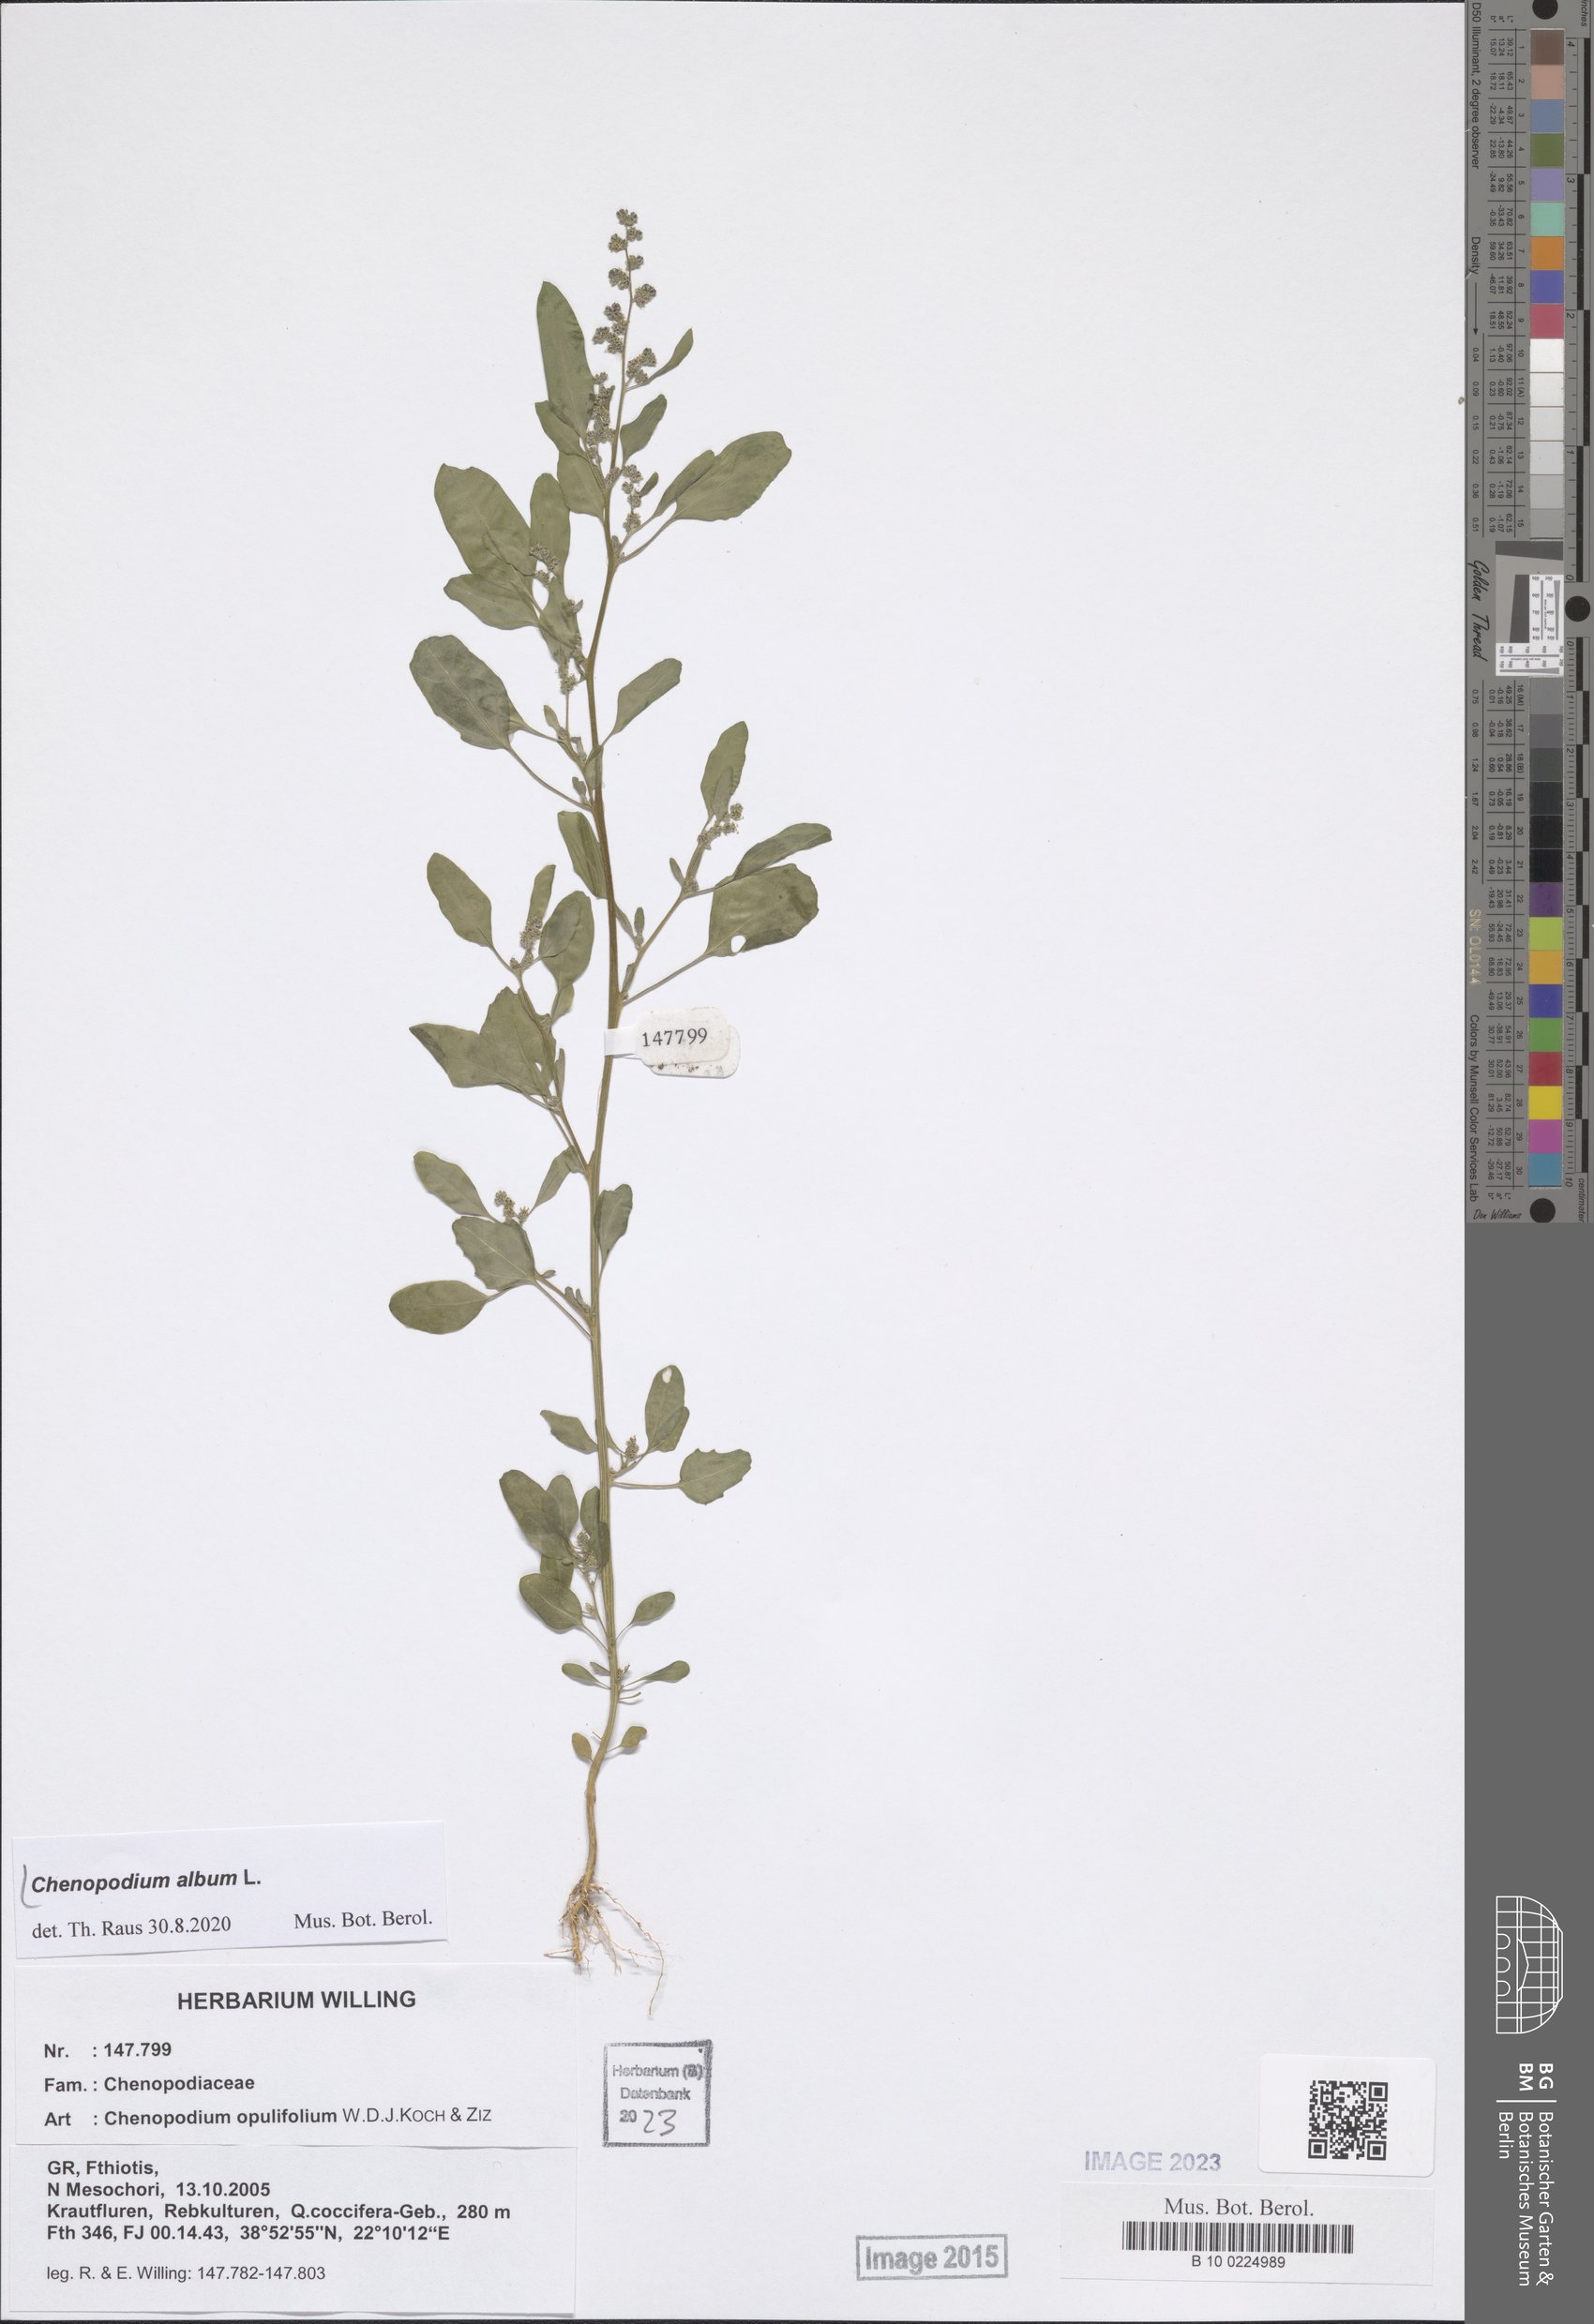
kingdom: Plantae
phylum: Tracheophyta
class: Magnoliopsida
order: Caryophyllales
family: Amaranthaceae
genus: Chenopodium
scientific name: Chenopodium album
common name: Fat-hen
